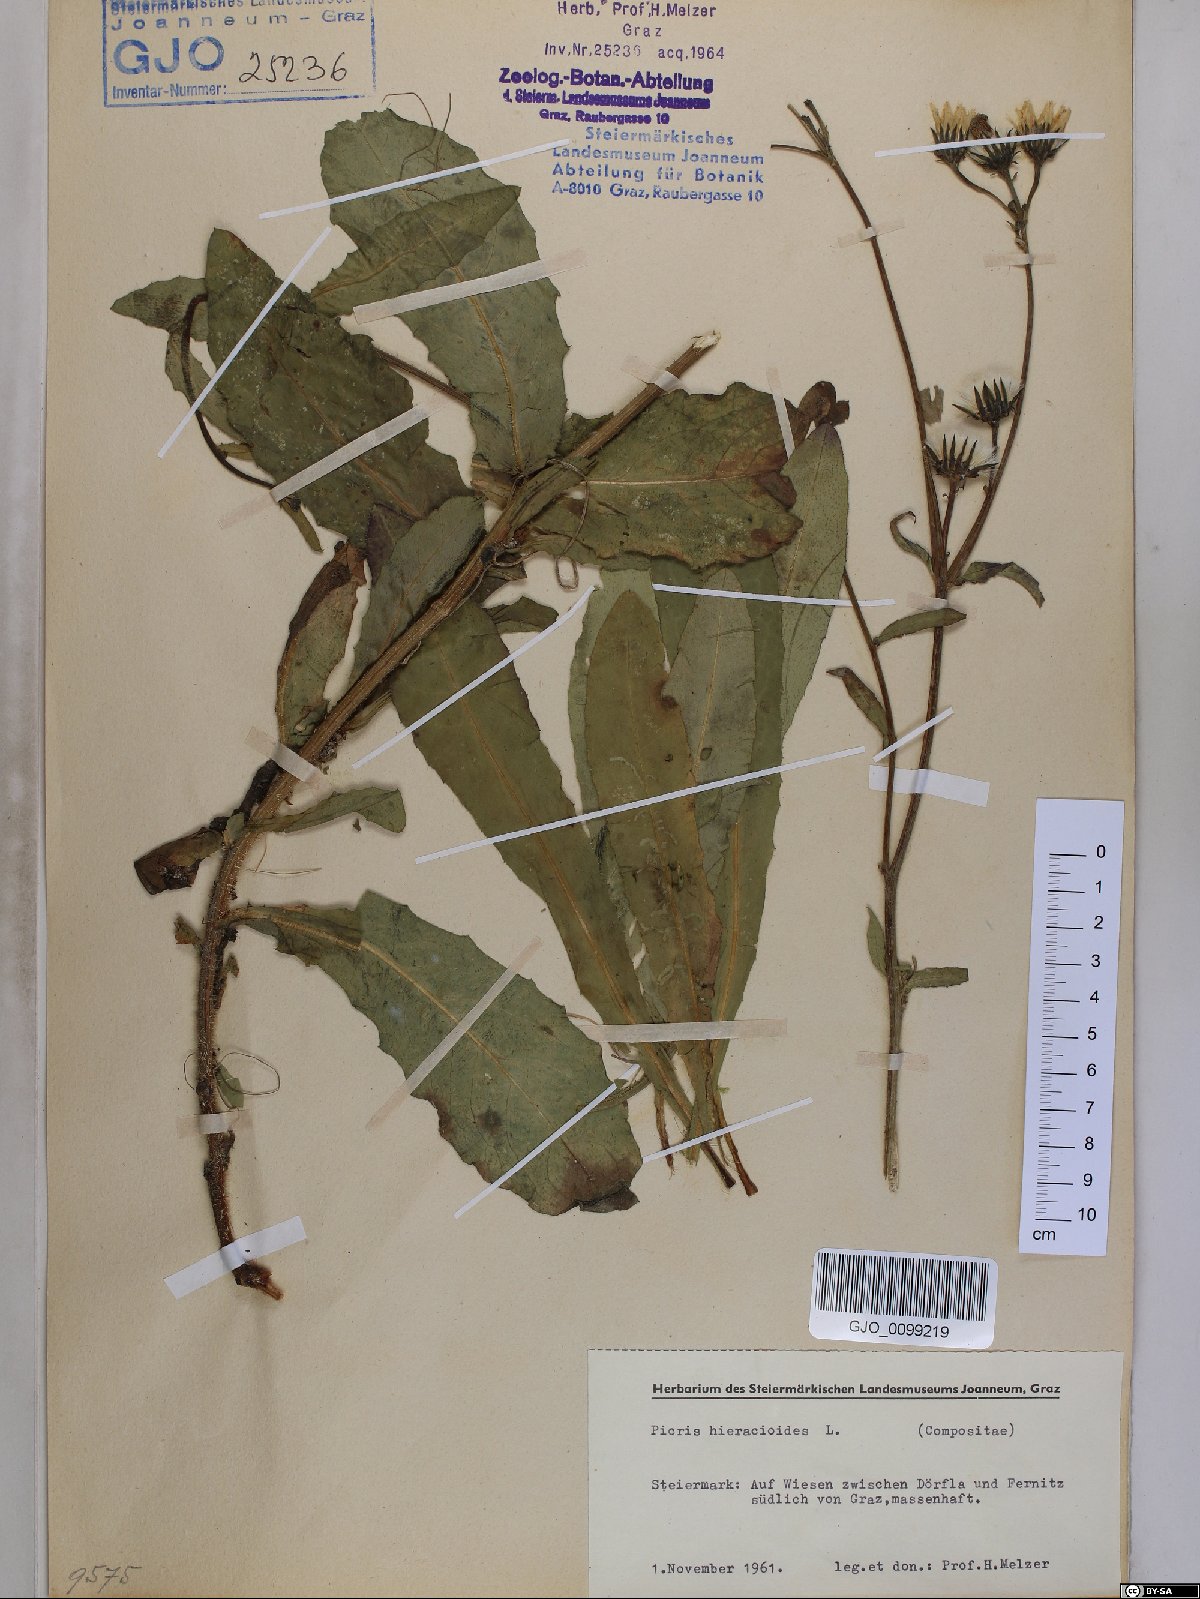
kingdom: Plantae
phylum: Tracheophyta
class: Magnoliopsida
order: Asterales
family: Asteraceae
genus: Picris
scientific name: Picris hieracioides
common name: Hawkweed oxtongue
